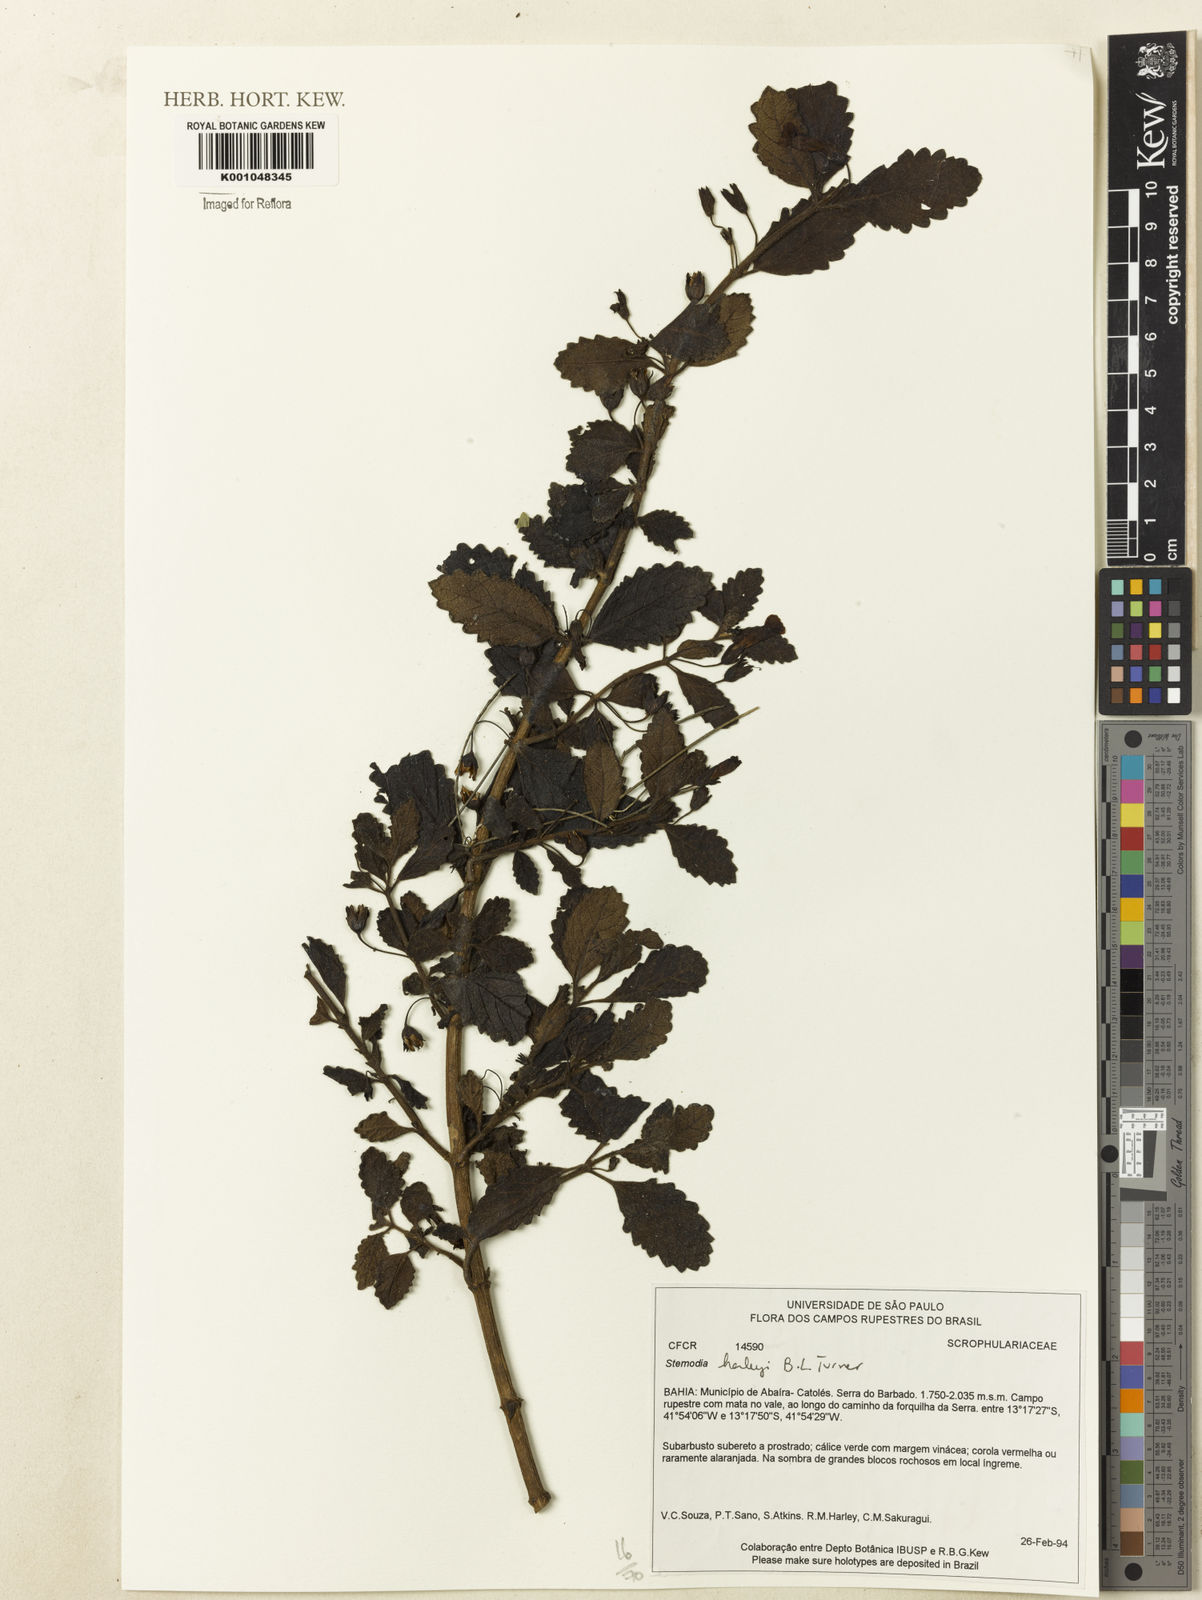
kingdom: Plantae
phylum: Tracheophyta
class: Magnoliopsida
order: Lamiales
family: Plantaginaceae
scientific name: Plantaginaceae
